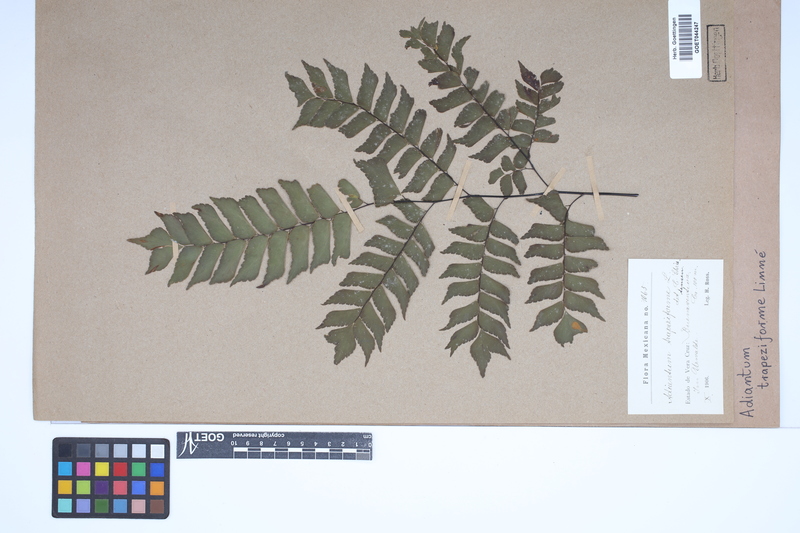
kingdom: Plantae
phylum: Tracheophyta
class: Polypodiopsida
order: Polypodiales
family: Pteridaceae
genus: Adiantum
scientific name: Adiantum trapeziforme
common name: Diamond maidenhair
